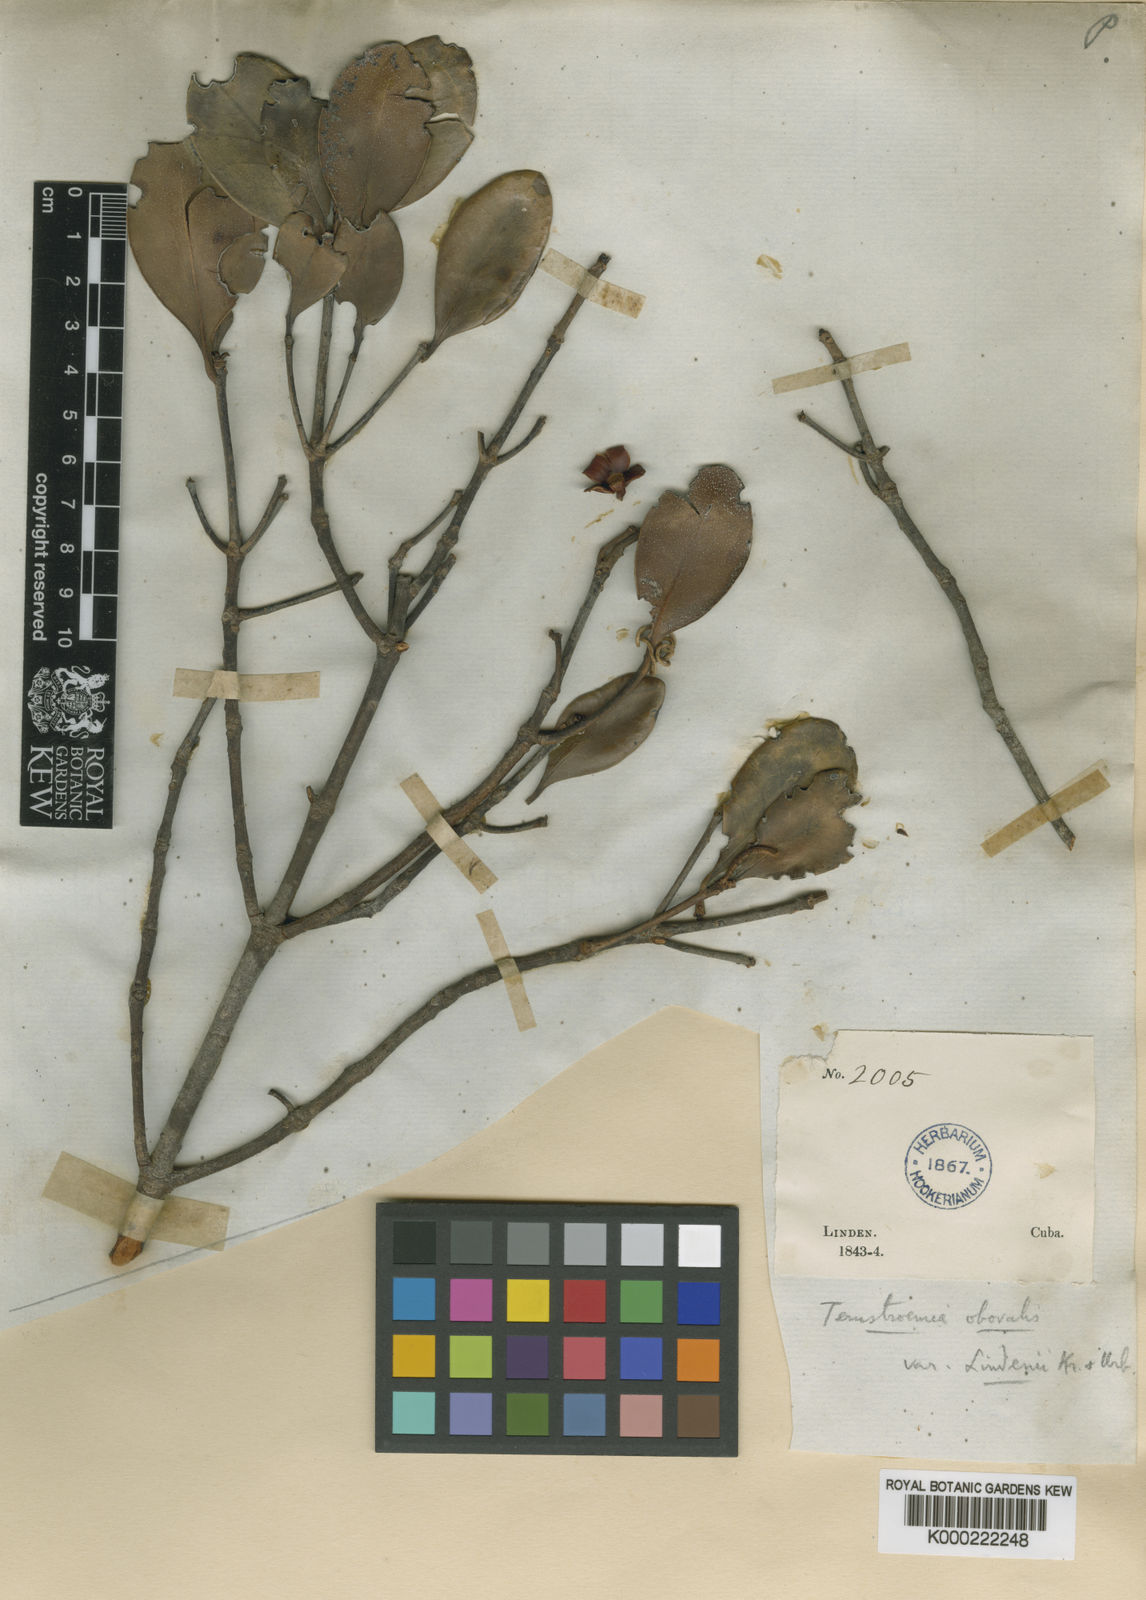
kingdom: Plantae
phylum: Tracheophyta
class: Magnoliopsida
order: Ericales
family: Pentaphylacaceae
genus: Ternstroemia
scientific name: Ternstroemia peduncularis
